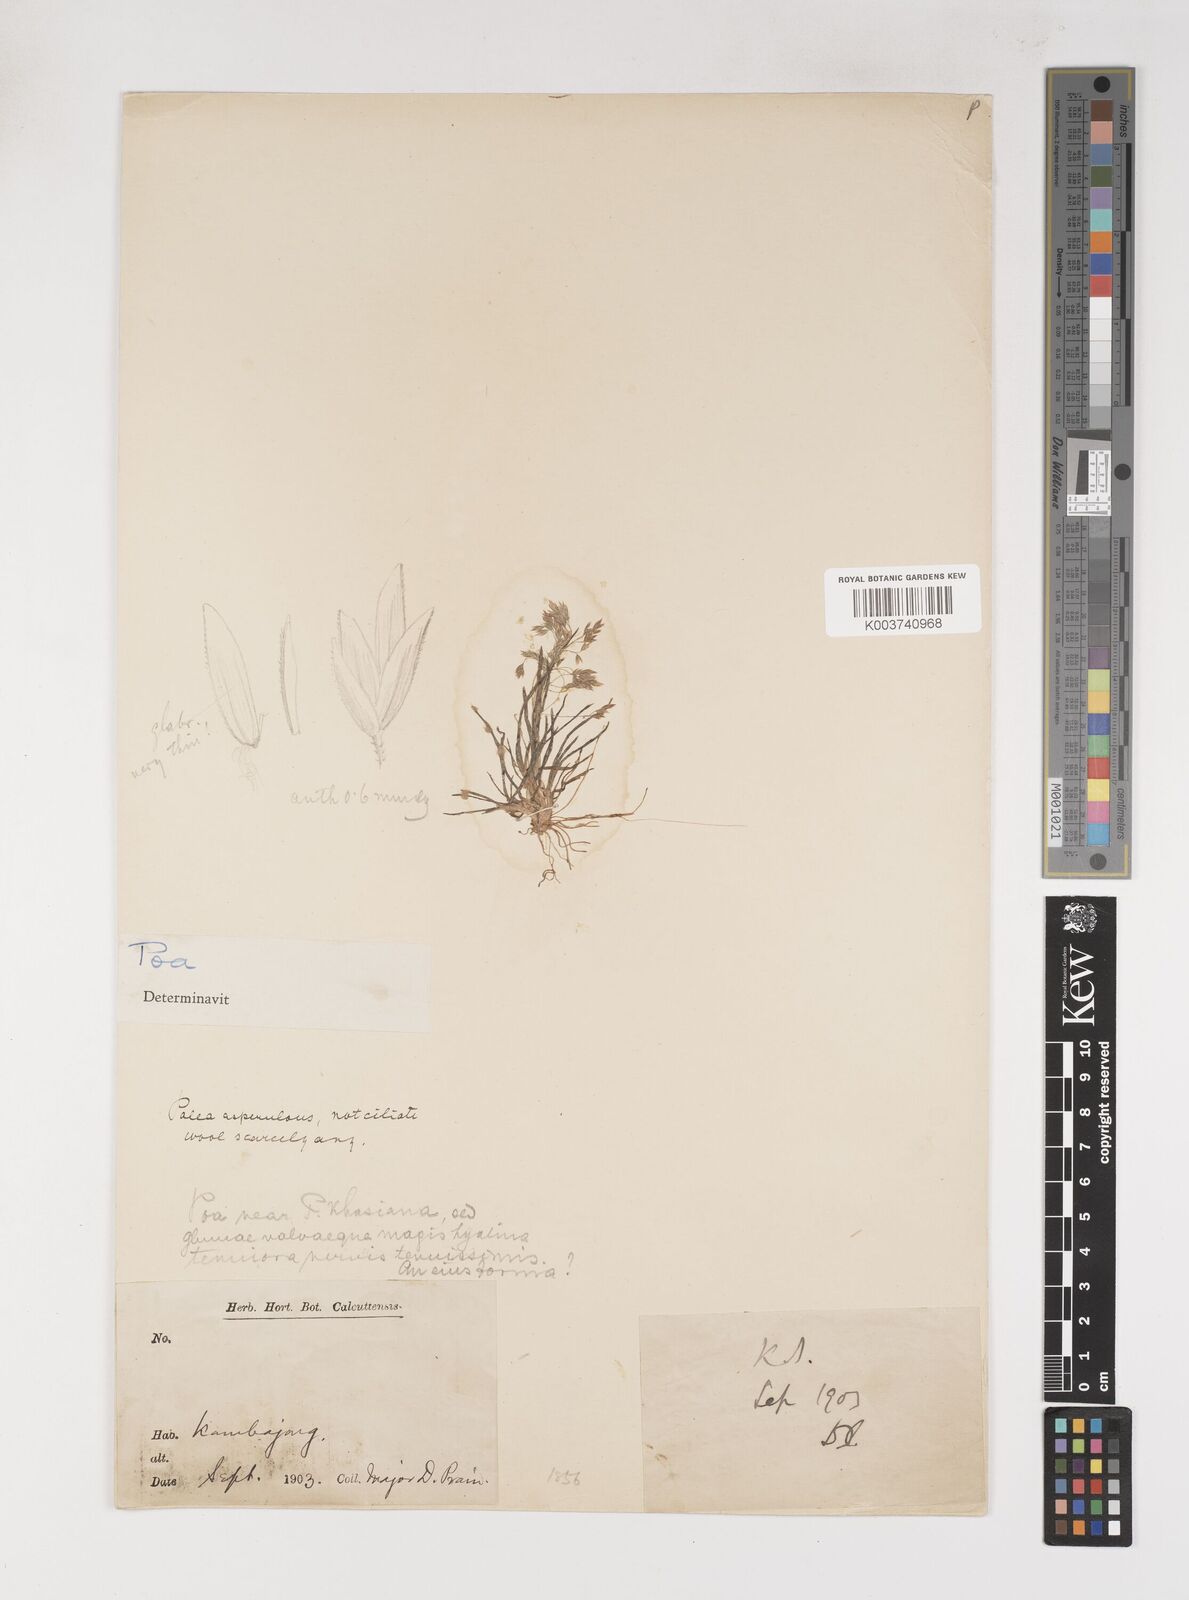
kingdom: Plantae
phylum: Tracheophyta
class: Liliopsida
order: Poales
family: Poaceae
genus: Poa
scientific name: Poa pagophila
